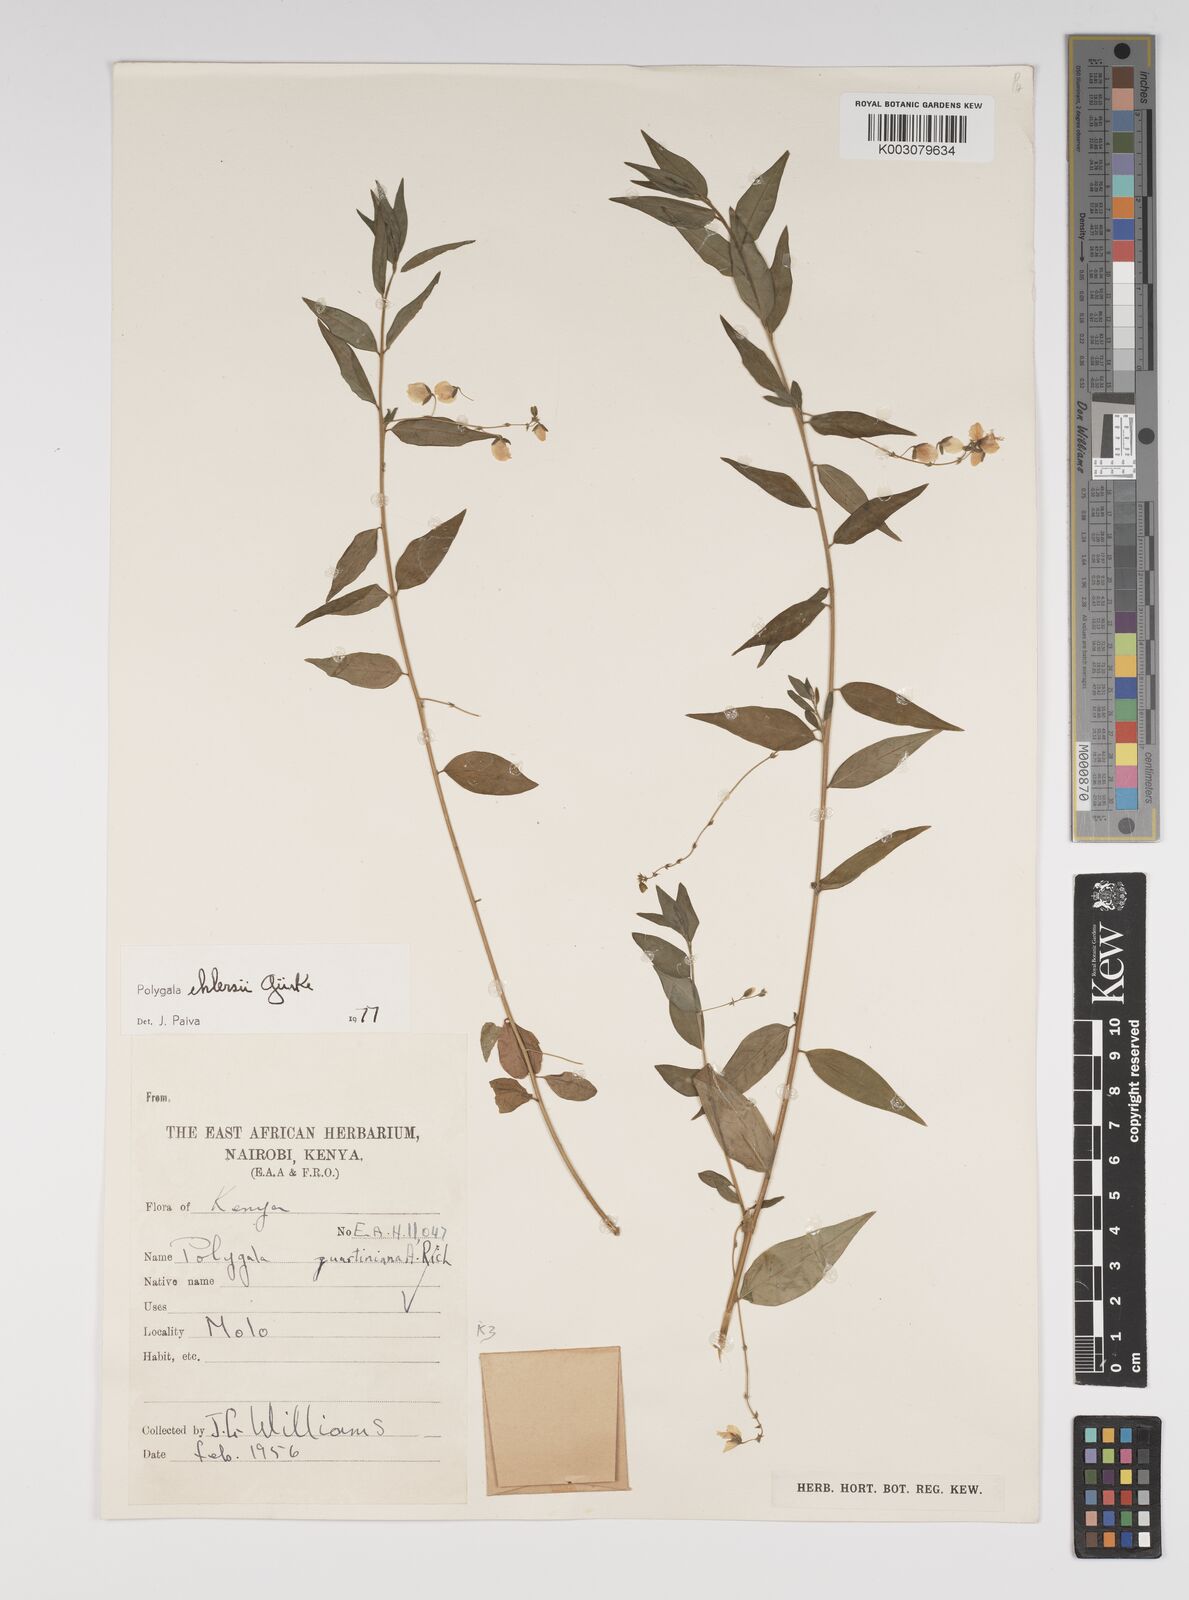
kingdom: Plantae
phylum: Tracheophyta
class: Magnoliopsida
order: Fabales
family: Polygalaceae
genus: Polygala
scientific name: Polygala ehlersii
